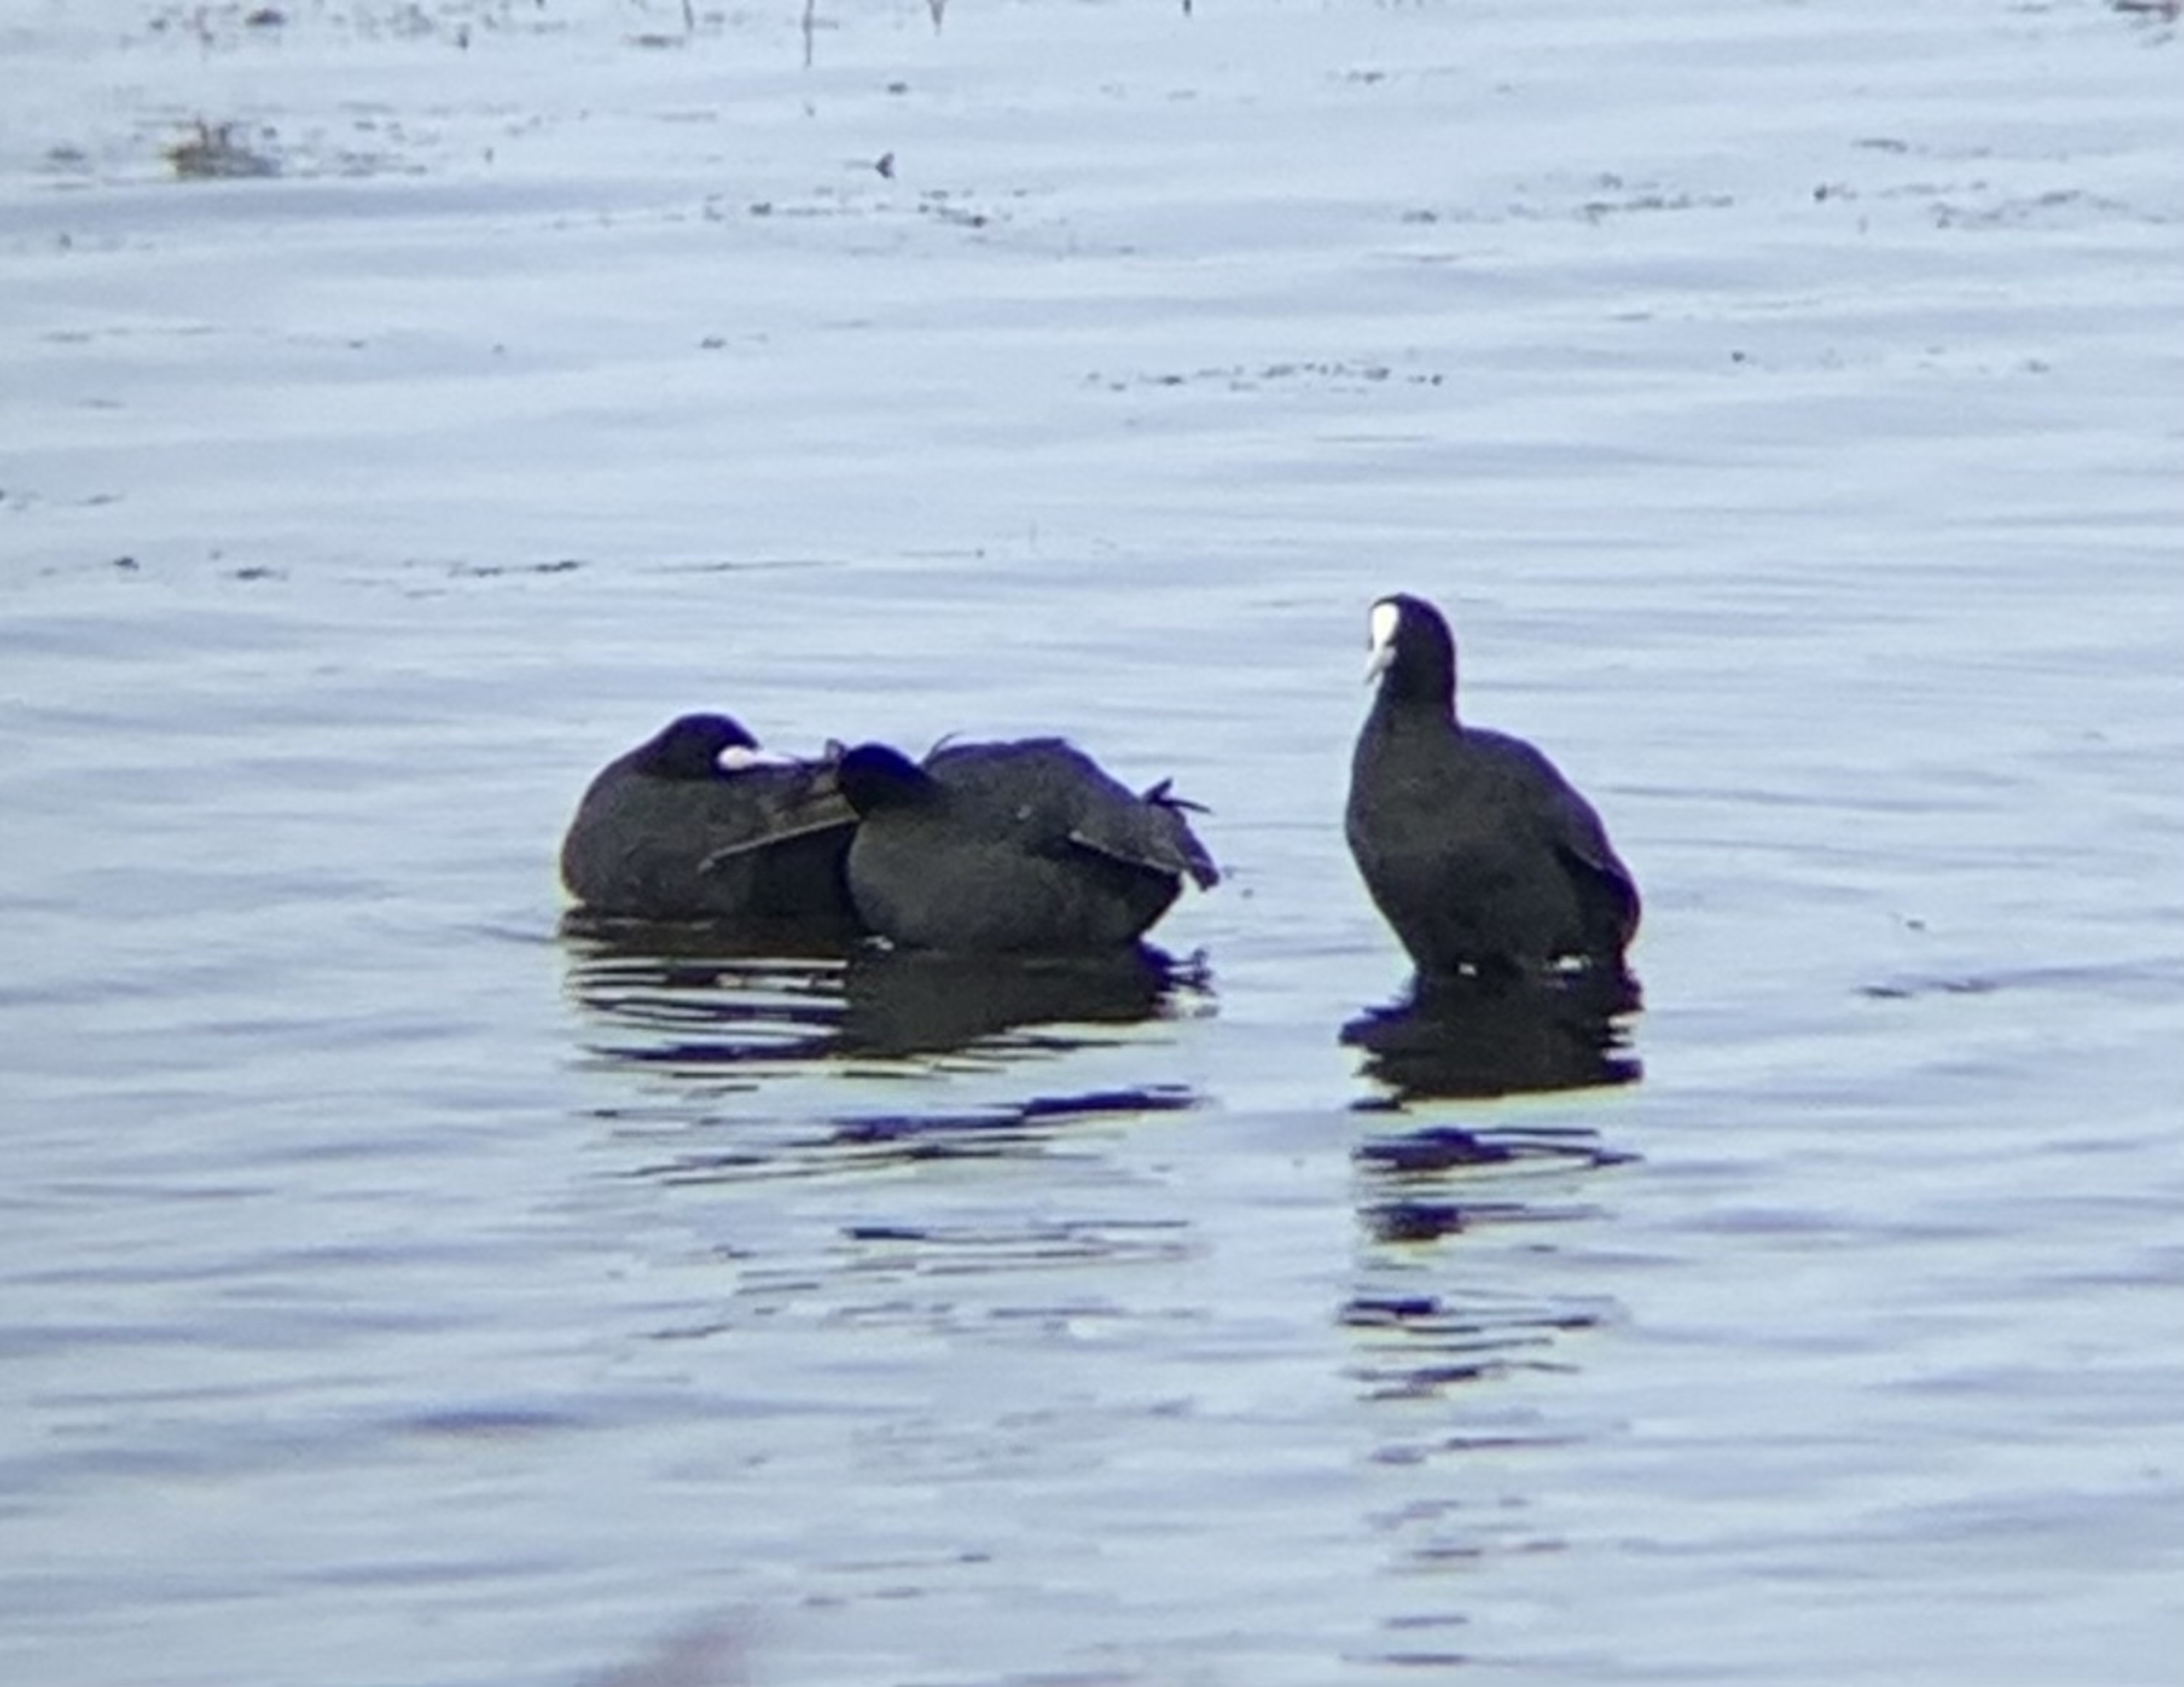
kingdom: Animalia
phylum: Chordata
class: Aves
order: Gruiformes
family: Rallidae
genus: Fulica
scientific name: Fulica atra
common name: Blishøne
